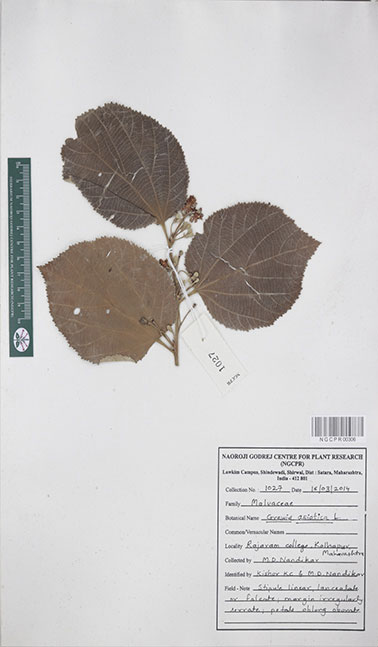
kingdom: Plantae
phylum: Tracheophyta
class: Magnoliopsida
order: Malvales
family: Malvaceae
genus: Grewia
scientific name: Grewia asiatica
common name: Phalsa
